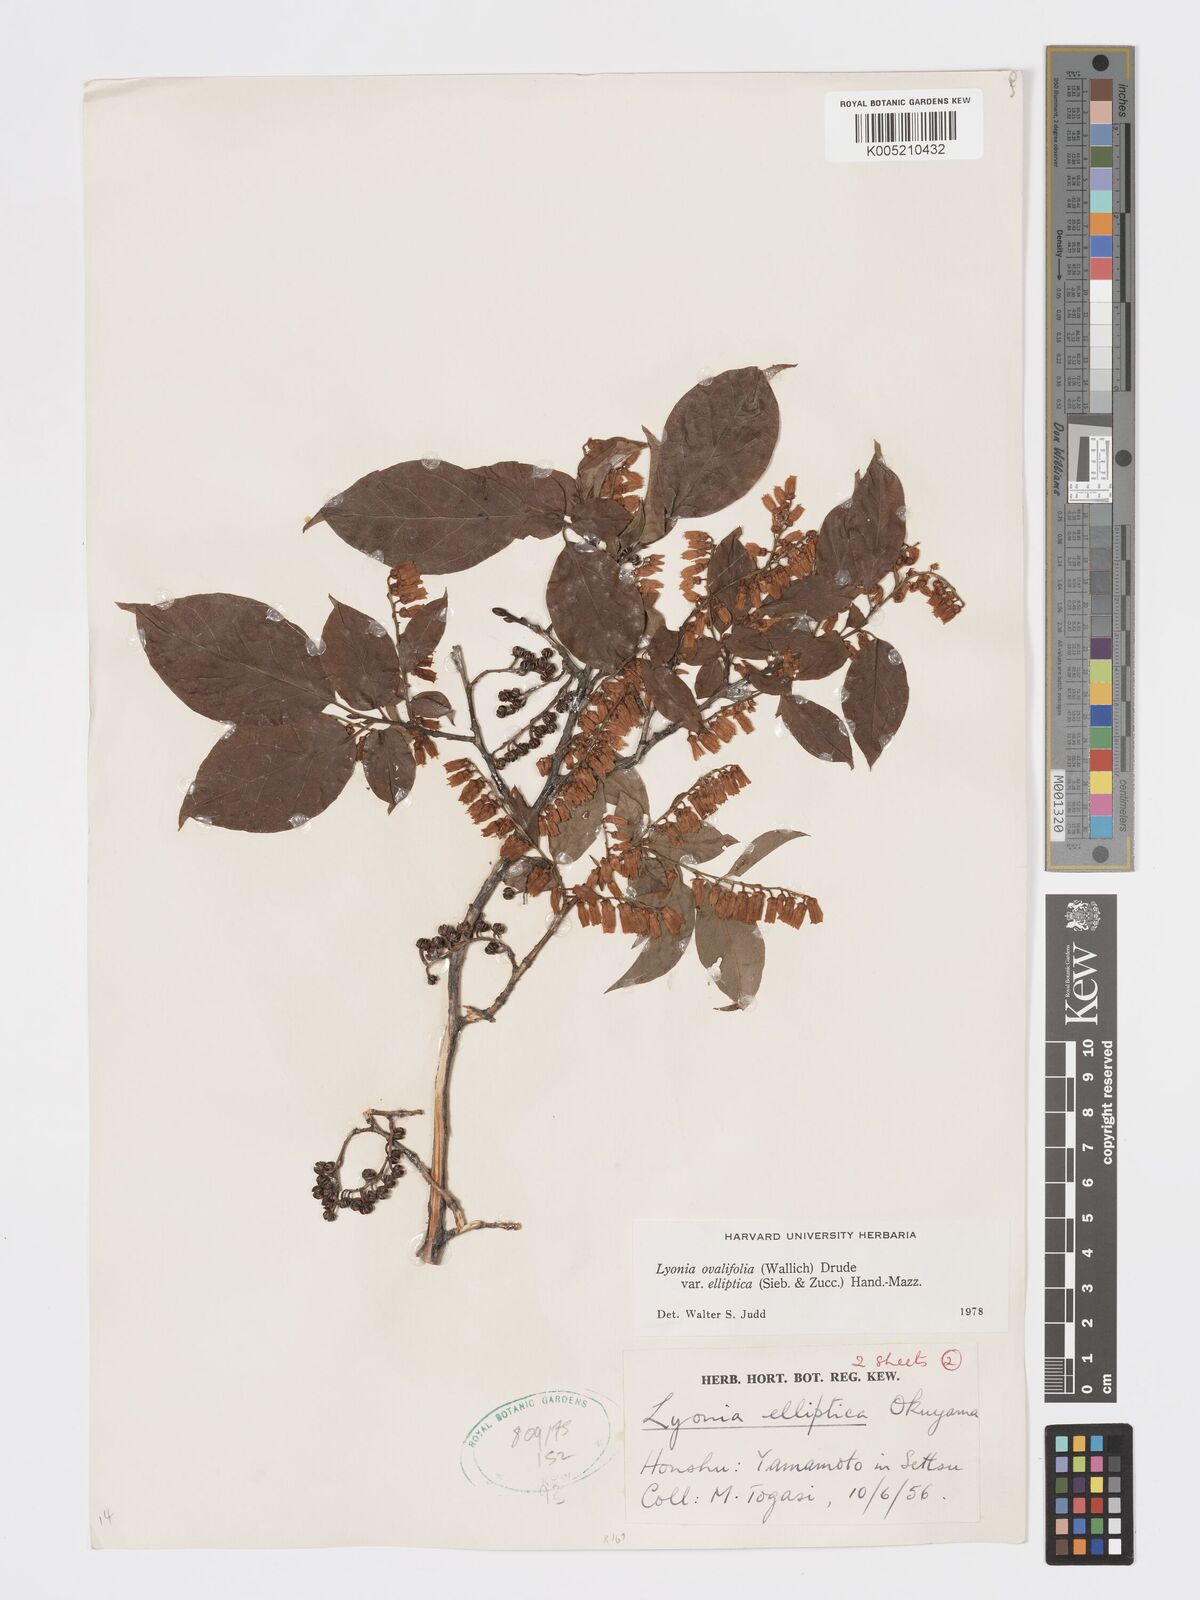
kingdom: Plantae
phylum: Tracheophyta
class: Magnoliopsida
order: Ericales
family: Ericaceae
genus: Lyonia
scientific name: Lyonia elliptica
